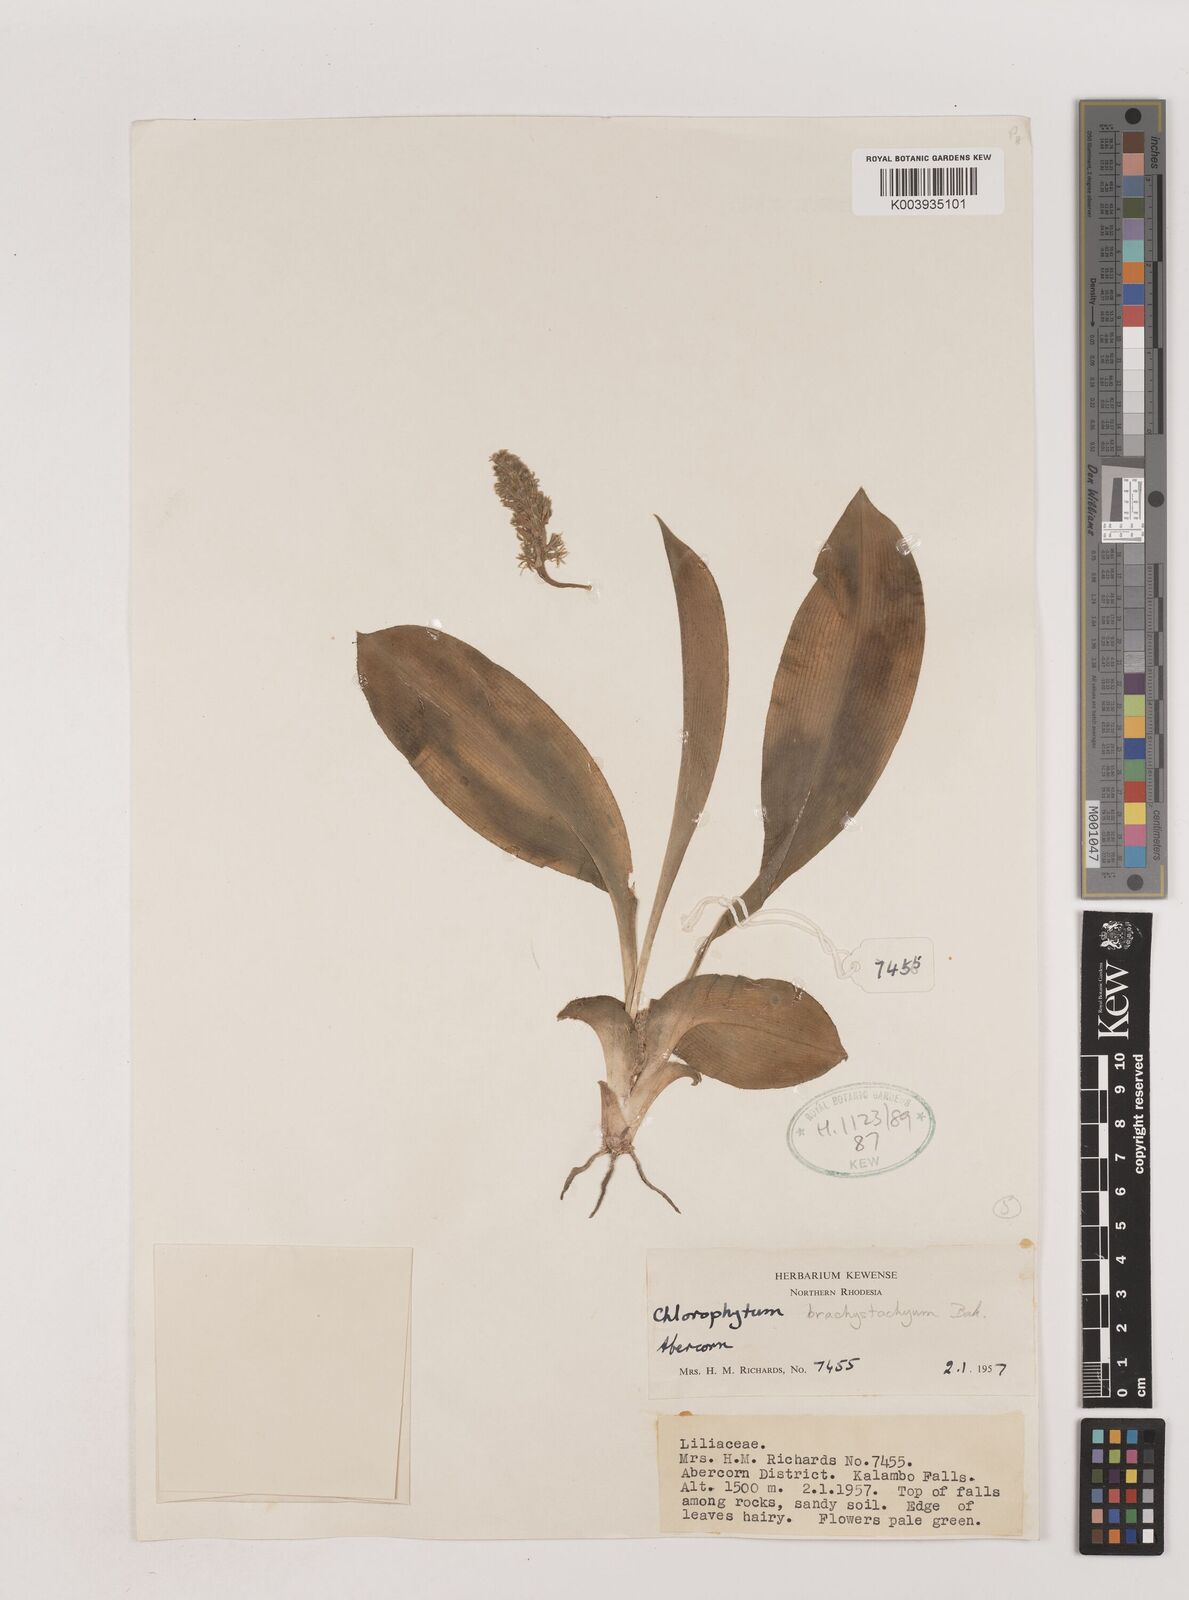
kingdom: Plantae
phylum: Tracheophyta
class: Liliopsida
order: Asparagales
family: Asparagaceae
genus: Chlorophytum
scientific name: Chlorophytum brachystachyum
